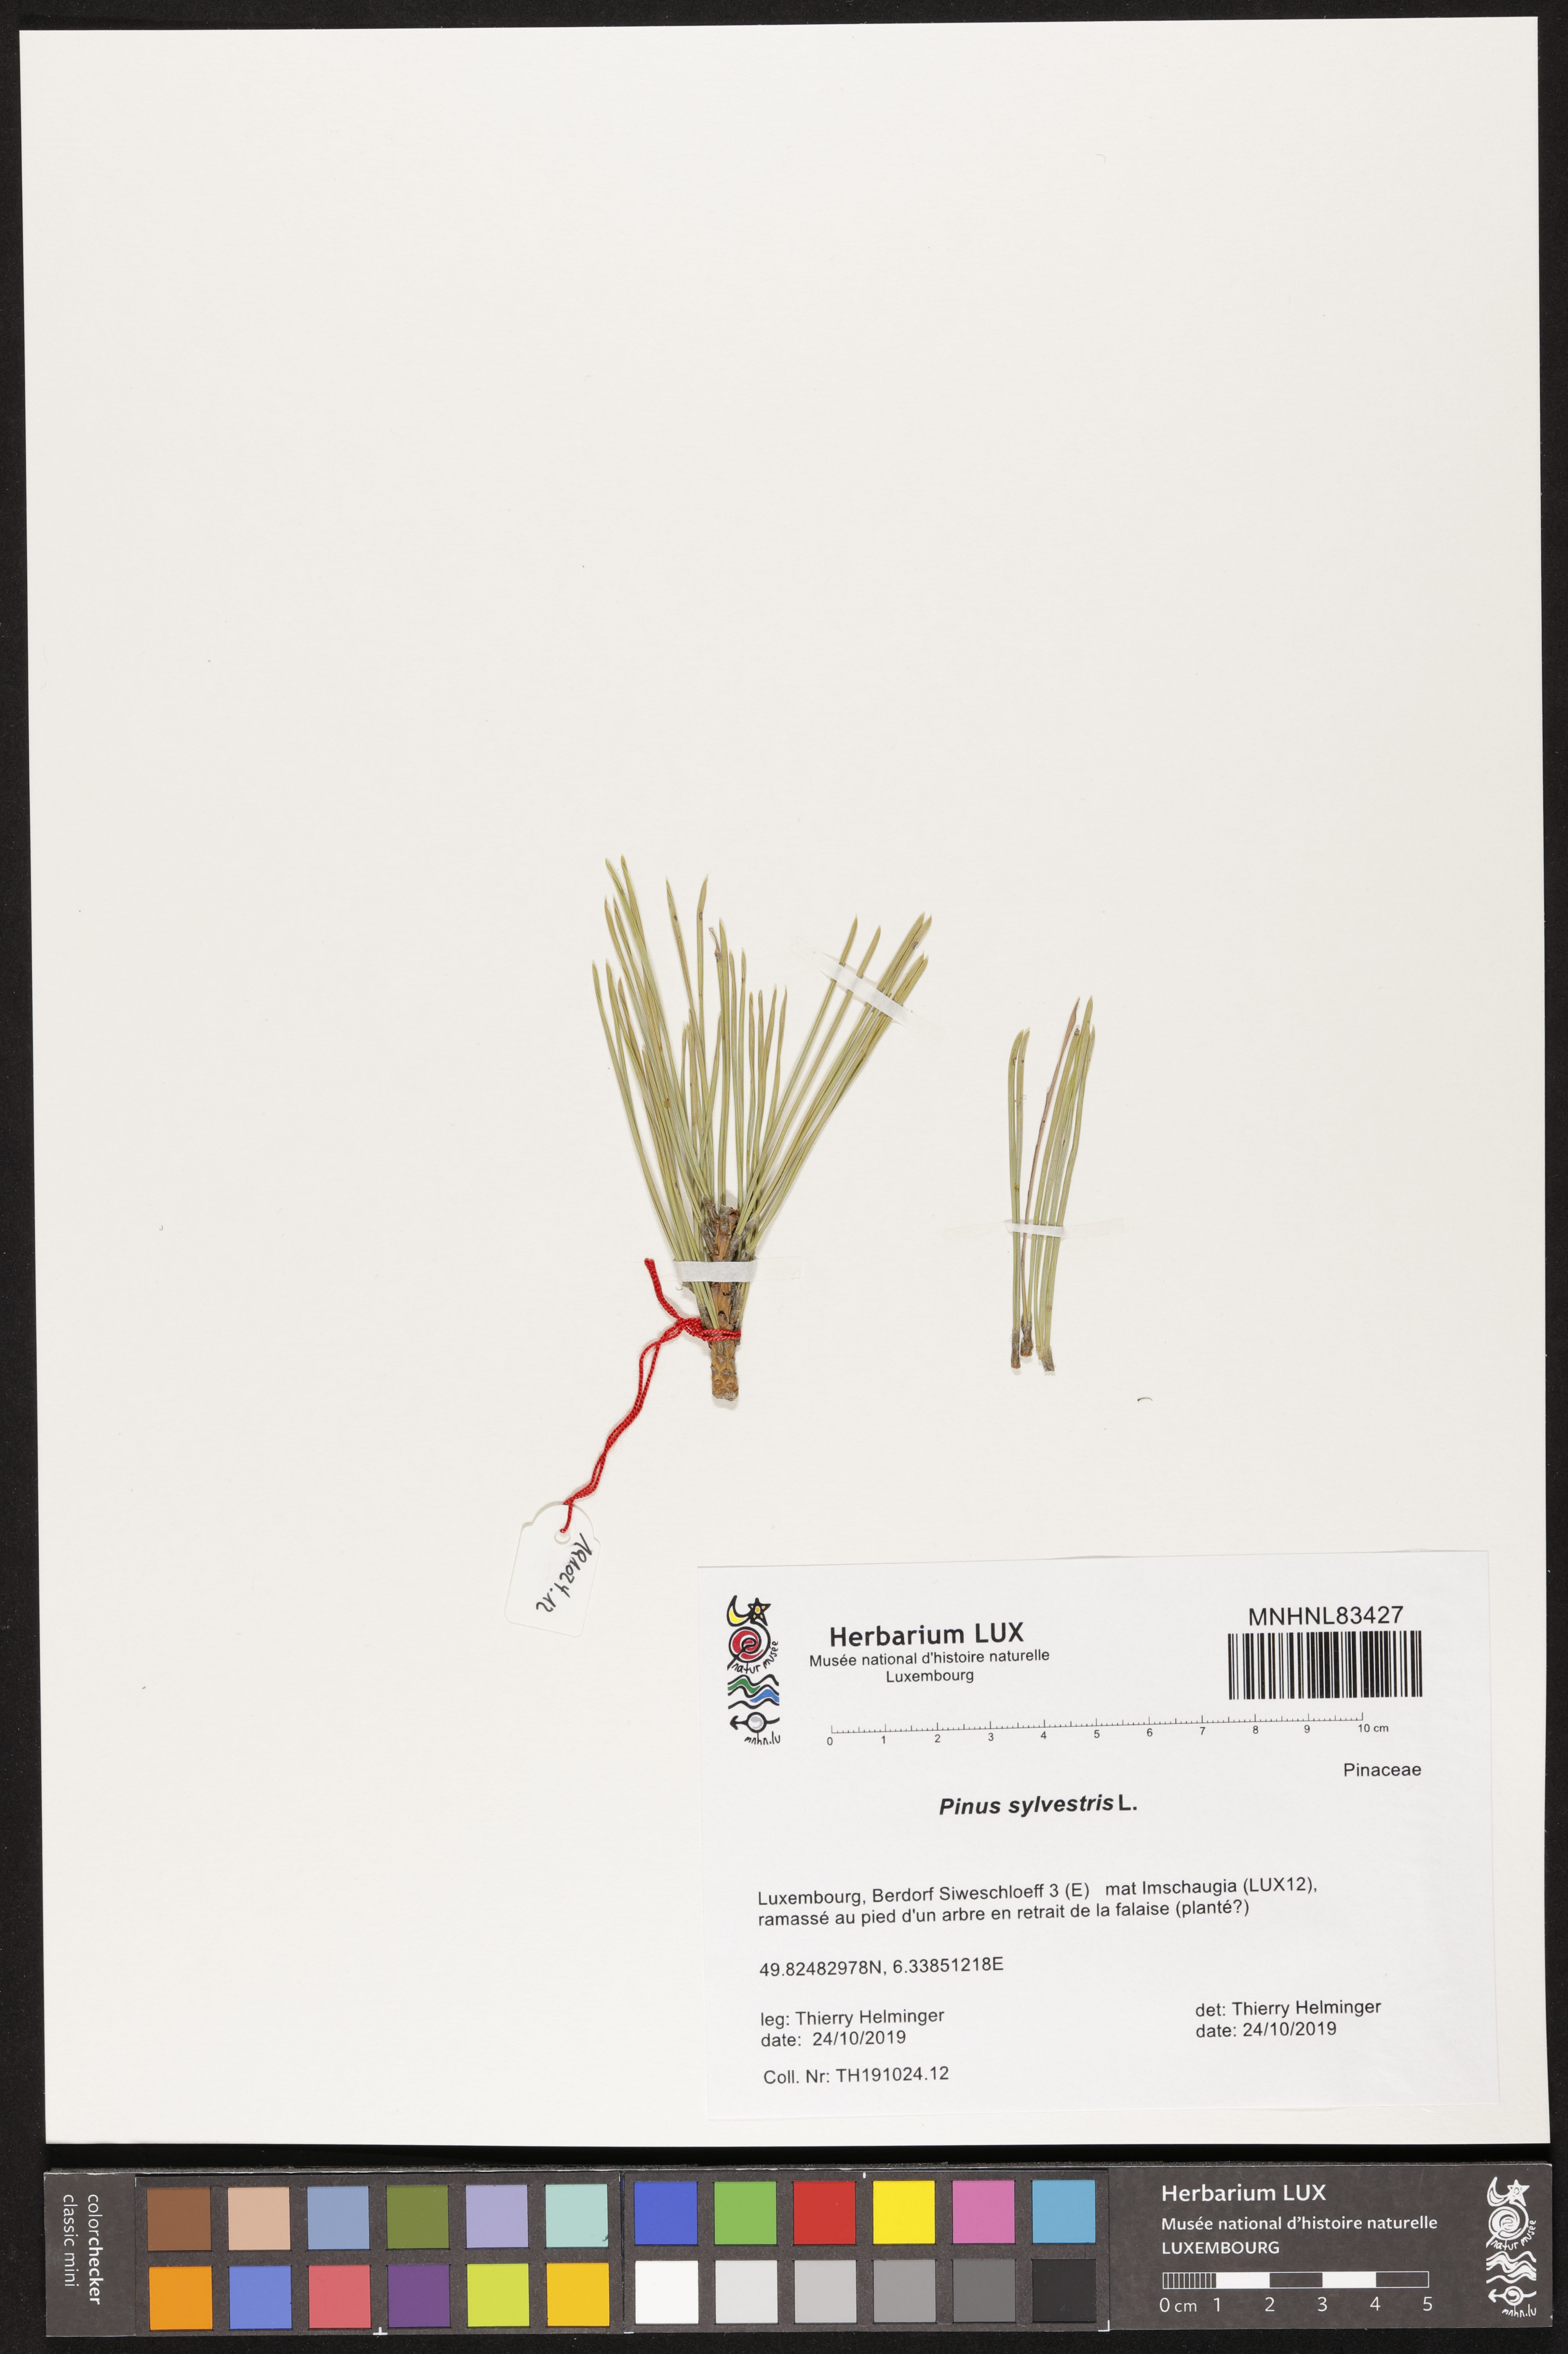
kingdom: Plantae
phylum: Tracheophyta
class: Pinopsida
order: Pinales
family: Pinaceae
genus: Pinus
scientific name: Pinus sylvestris
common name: Scots pine
